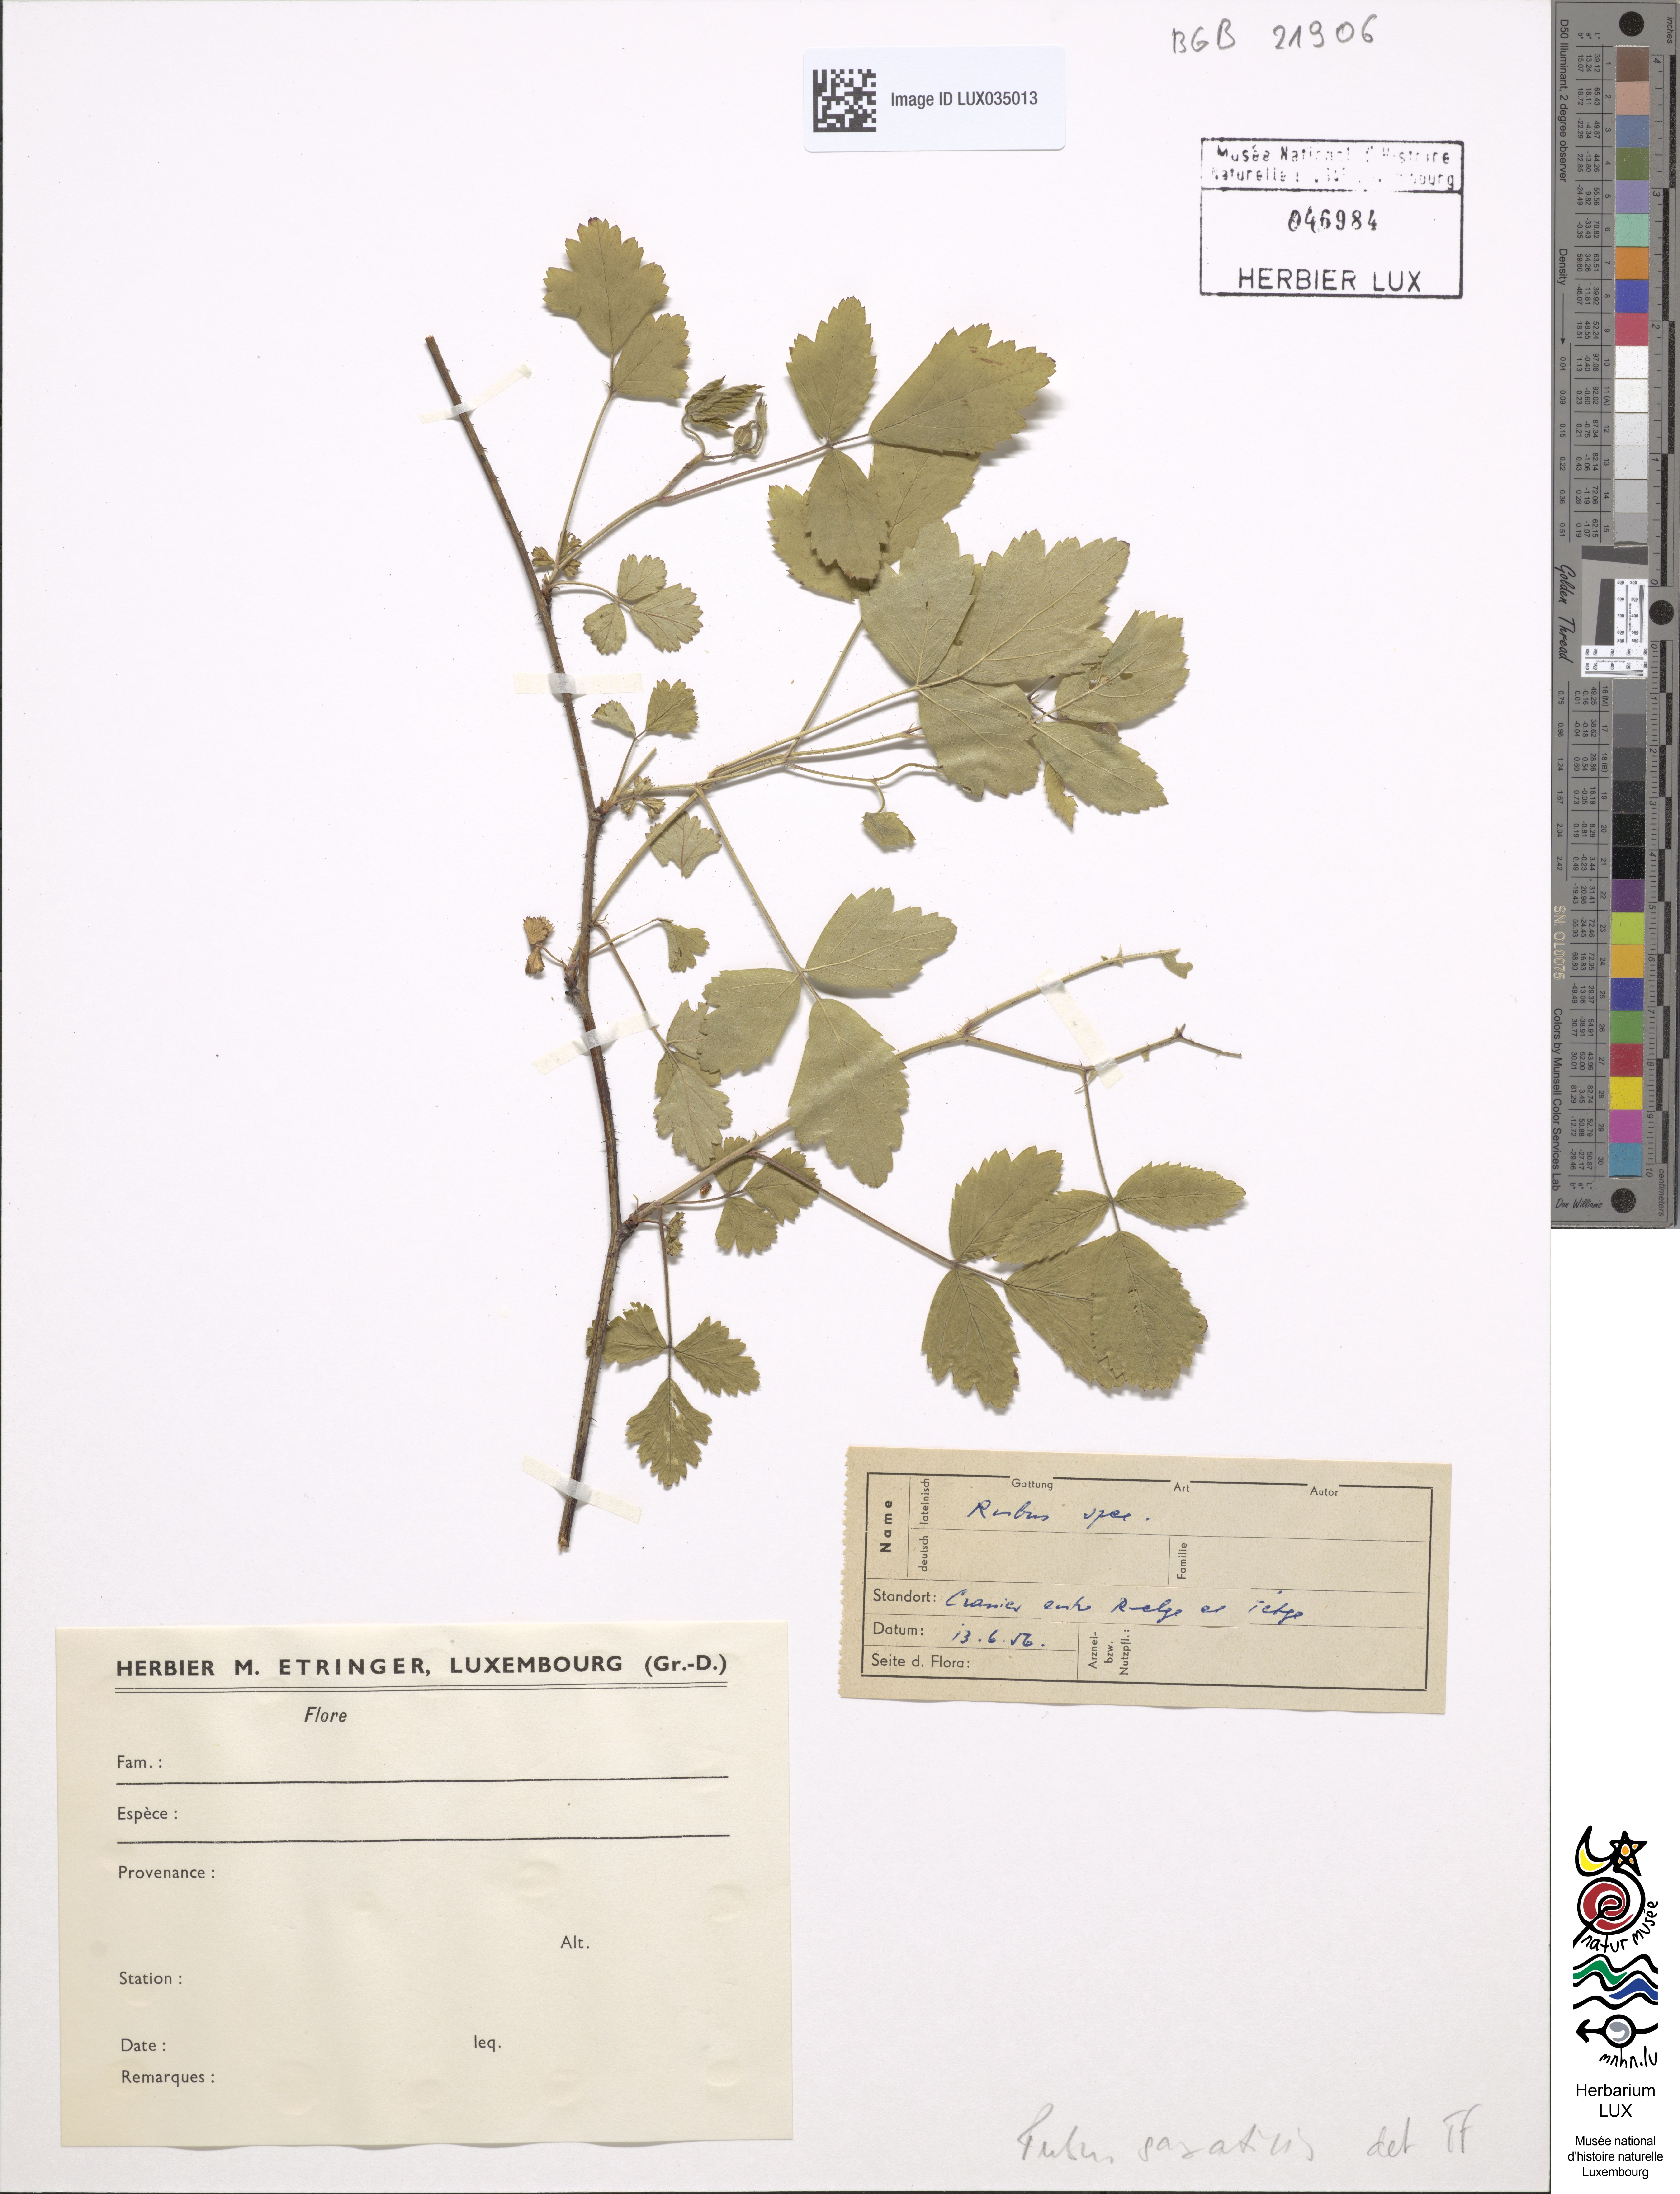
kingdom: Plantae
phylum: Tracheophyta
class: Magnoliopsida
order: Rosales
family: Rosaceae
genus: Rubus
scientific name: Rubus saxatilis
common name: Stone bramble
